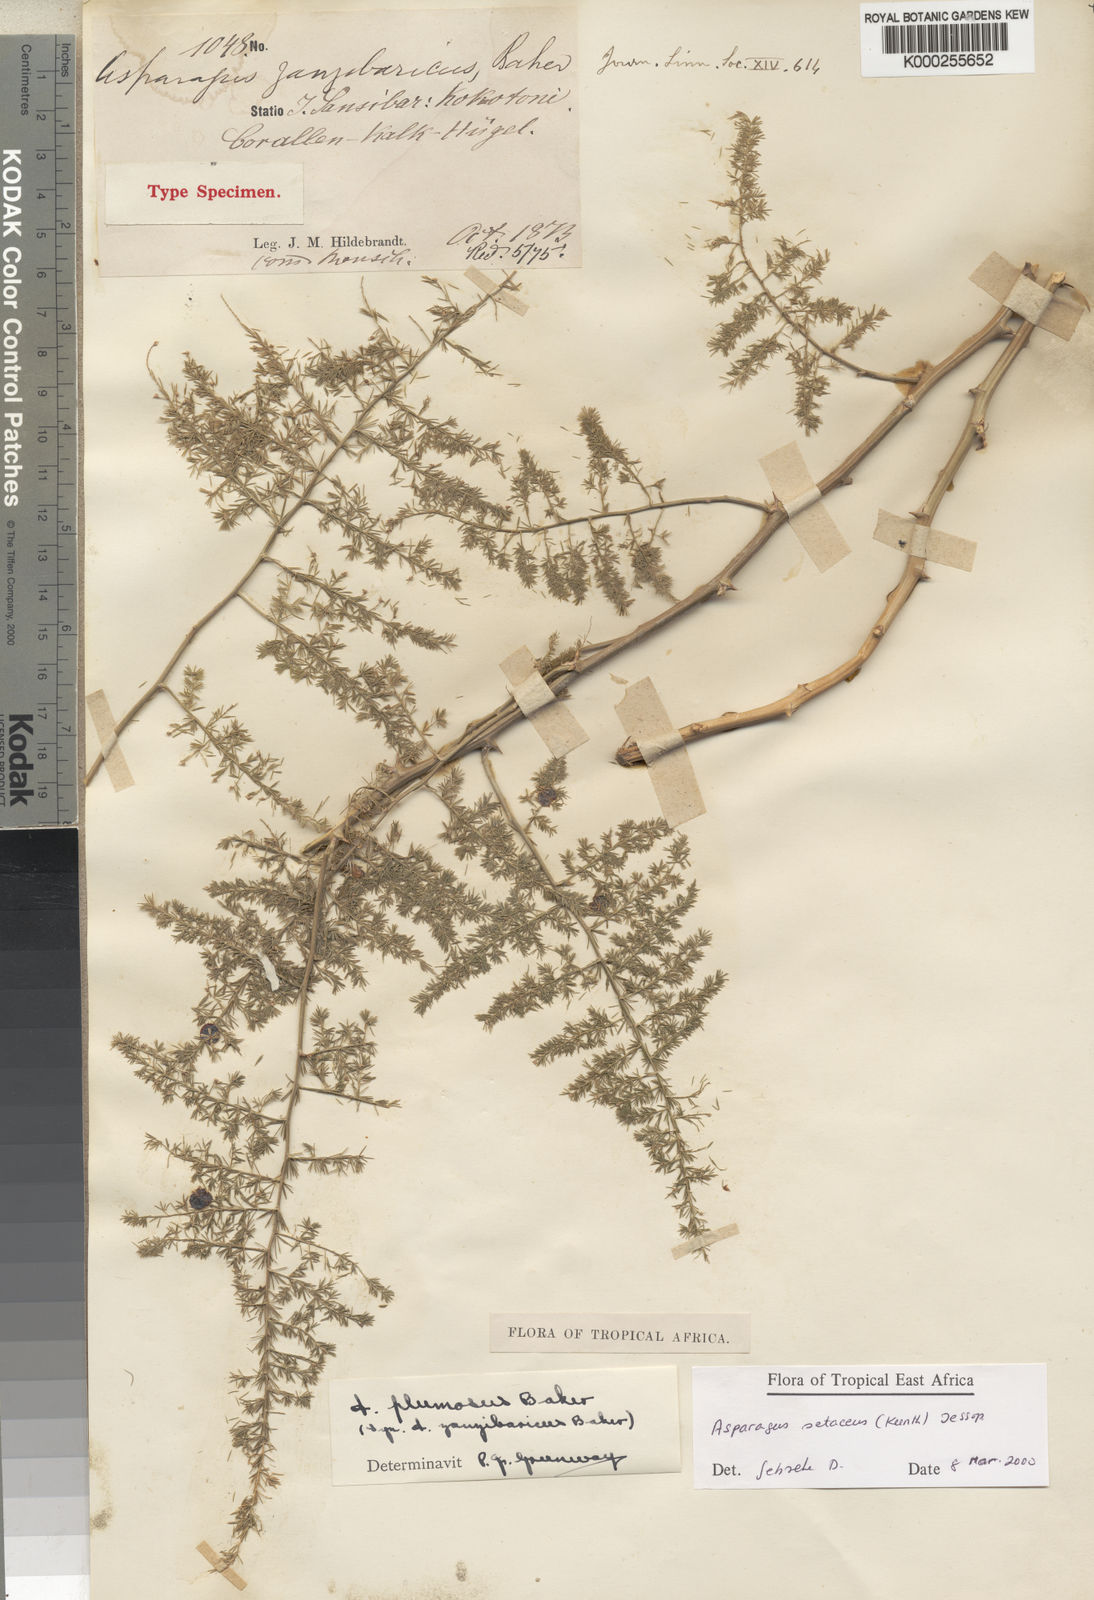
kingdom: Plantae
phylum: Tracheophyta
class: Liliopsida
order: Asparagales
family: Asparagaceae
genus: Asparagus
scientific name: Asparagus setaceus
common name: Common asparagus fern
